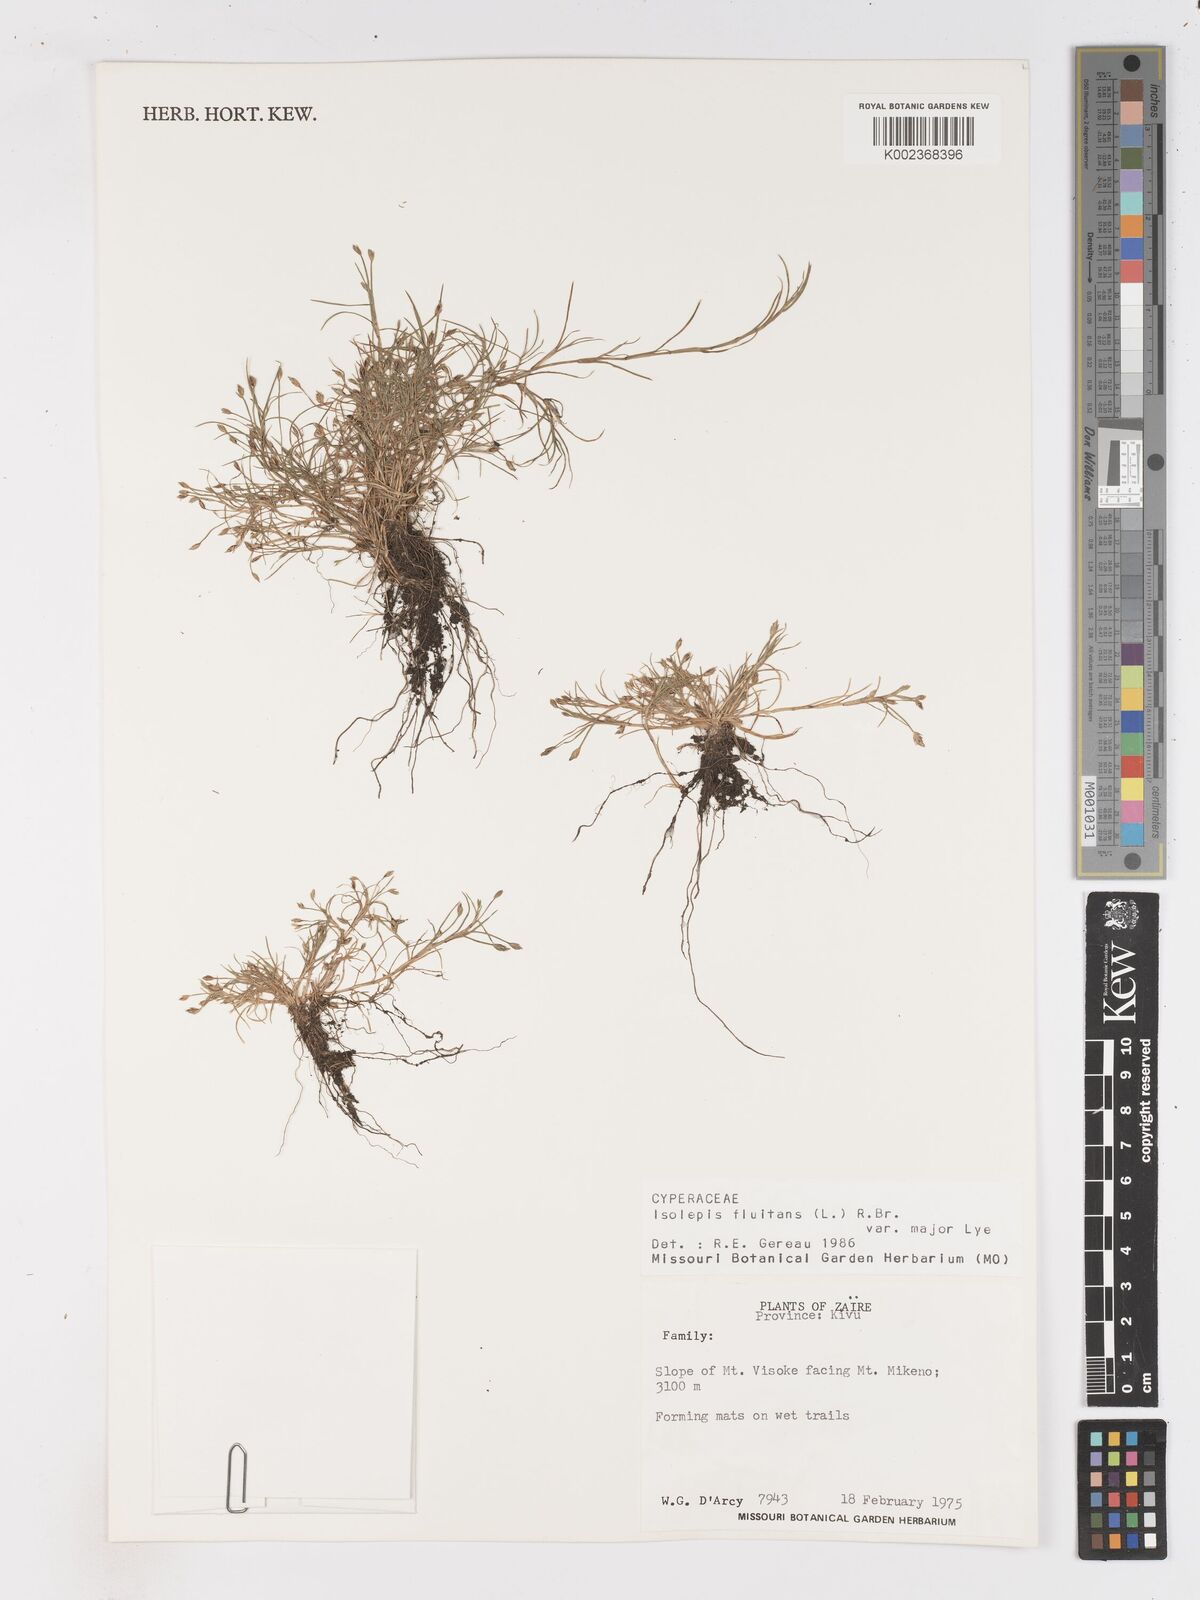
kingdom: Plantae
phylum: Tracheophyta
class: Liliopsida
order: Poales
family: Cyperaceae
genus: Isolepis
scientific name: Isolepis fluitans
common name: Floating club-rush
